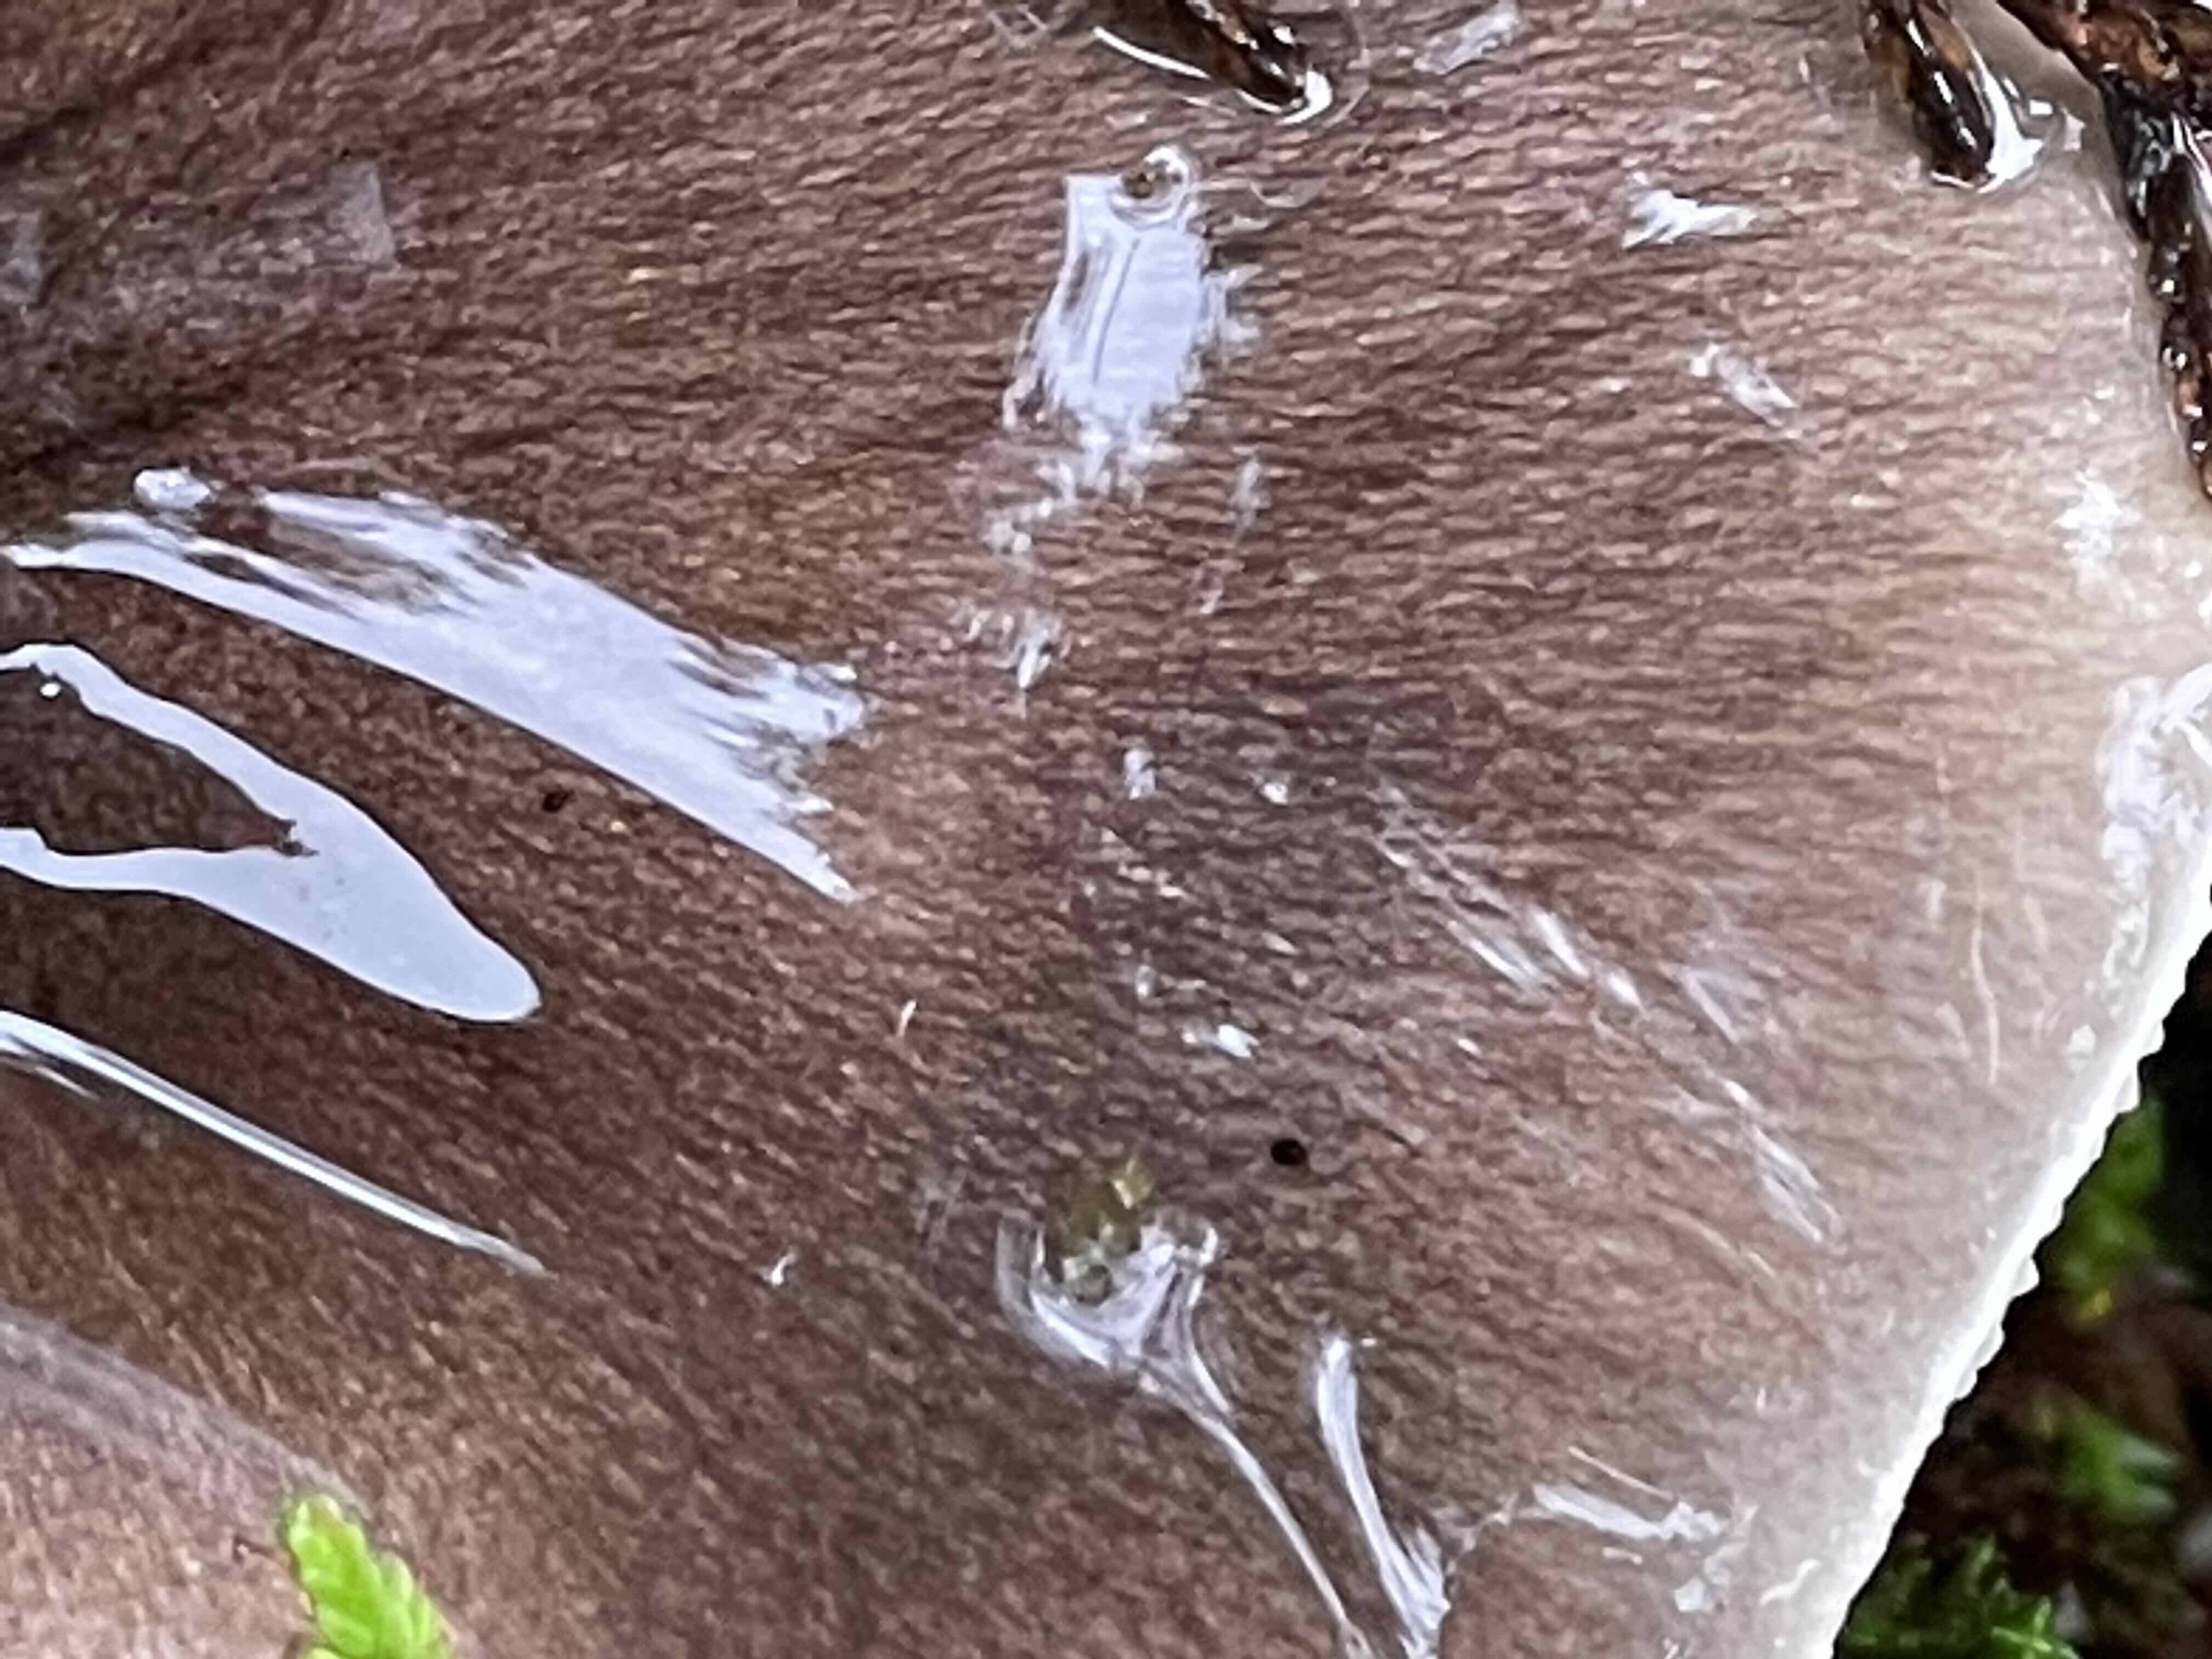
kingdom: Fungi
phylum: Basidiomycota
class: Agaricomycetes
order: Agaricales
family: Tricholomataceae
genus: Tricholoma
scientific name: Tricholoma portentosum
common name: grå ridderhat
